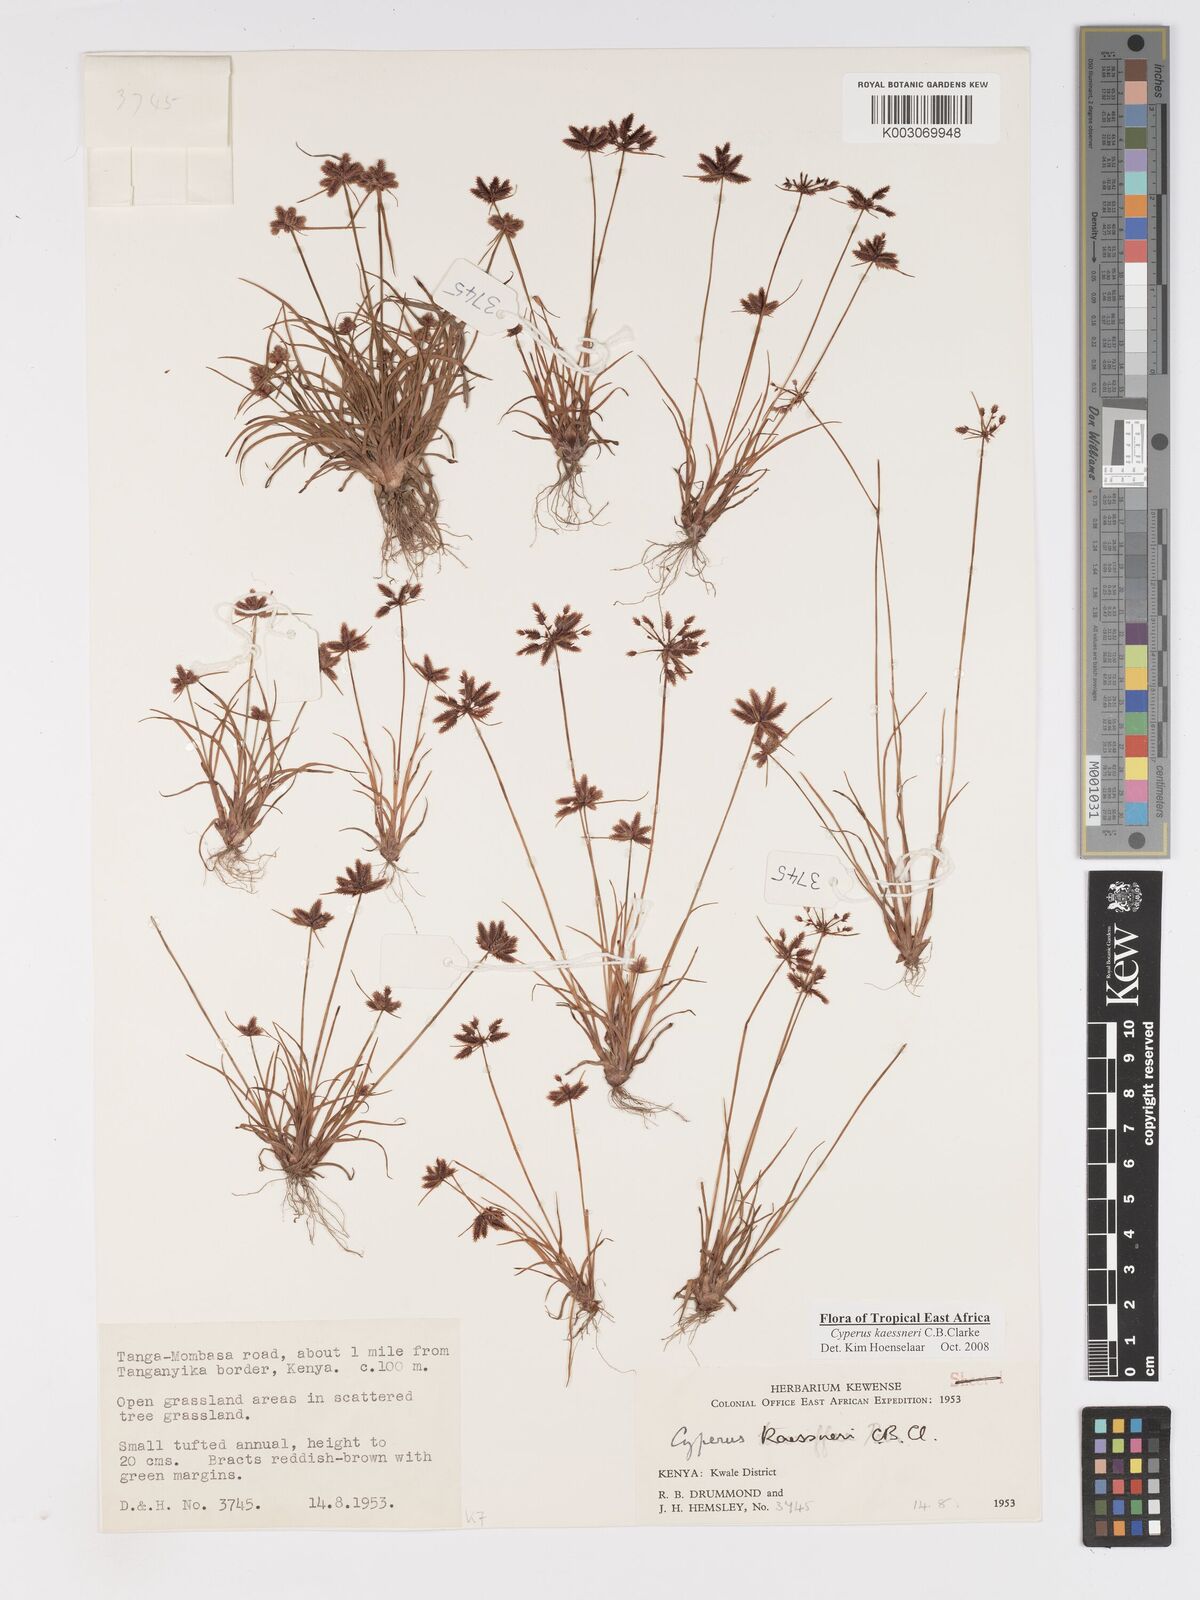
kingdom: Plantae
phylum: Tracheophyta
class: Liliopsida
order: Poales
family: Cyperaceae
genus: Cyperus
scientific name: Cyperus kaessneri
